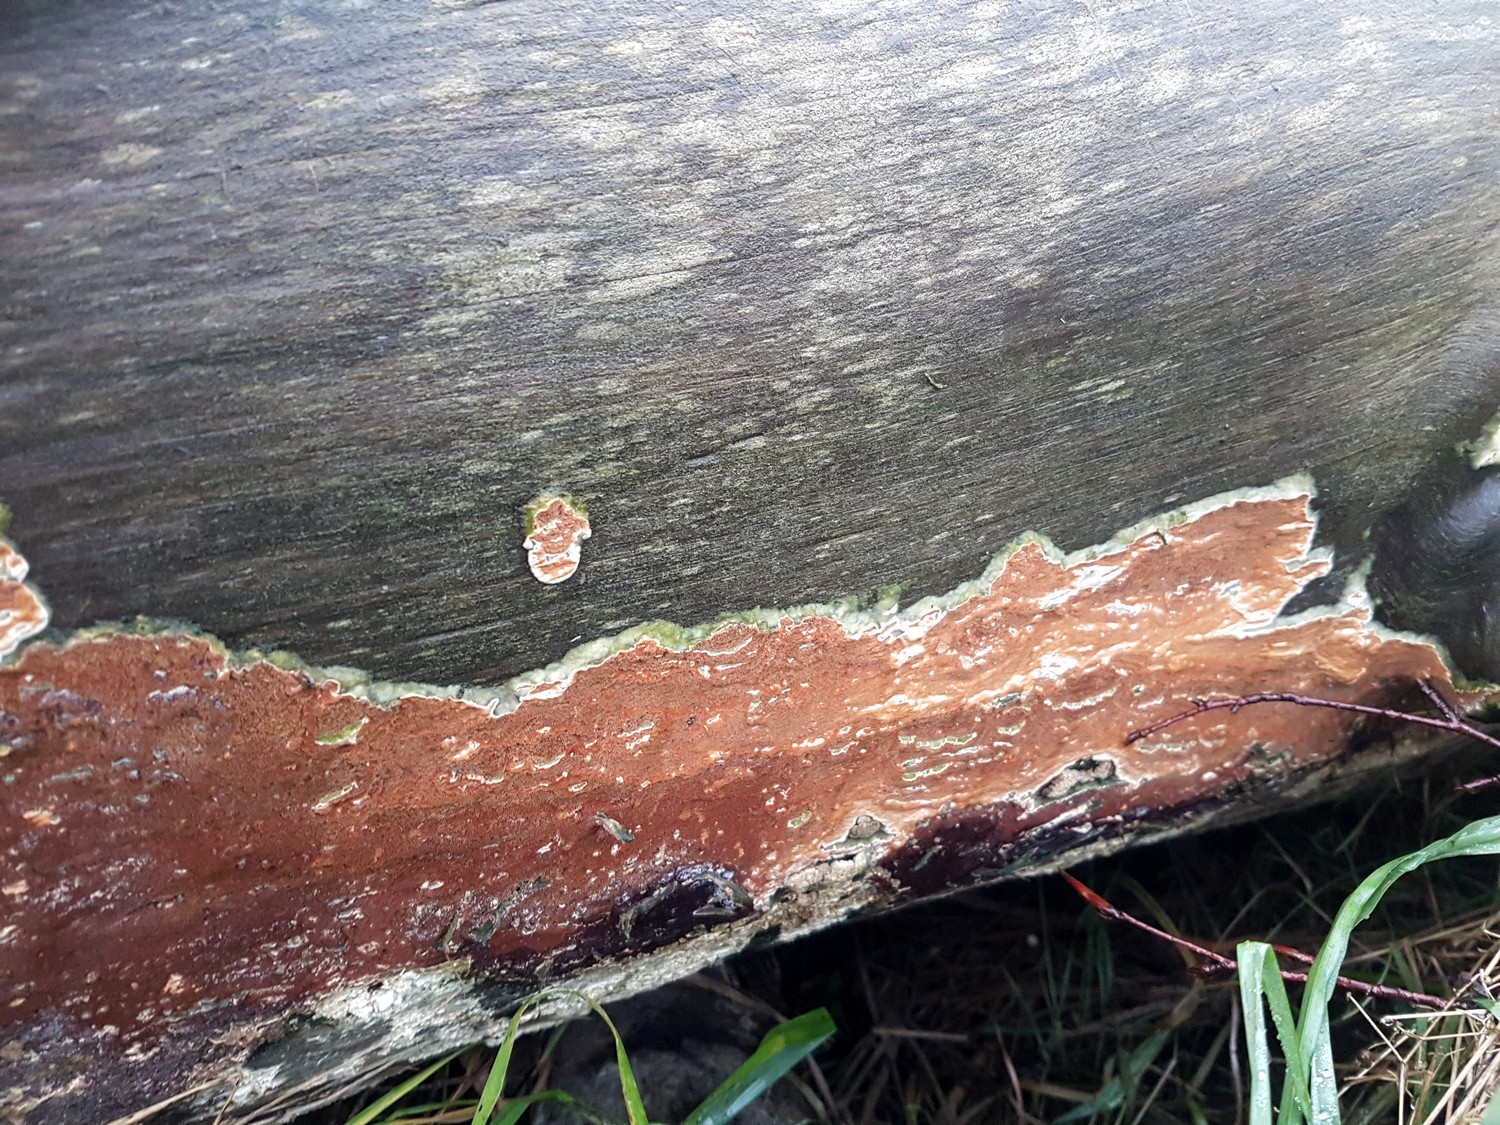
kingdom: Fungi
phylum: Basidiomycota
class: Agaricomycetes
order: Polyporales
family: Irpicaceae
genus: Meruliopsis
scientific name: Meruliopsis taxicola
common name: purpurbrun foldporesvamp
